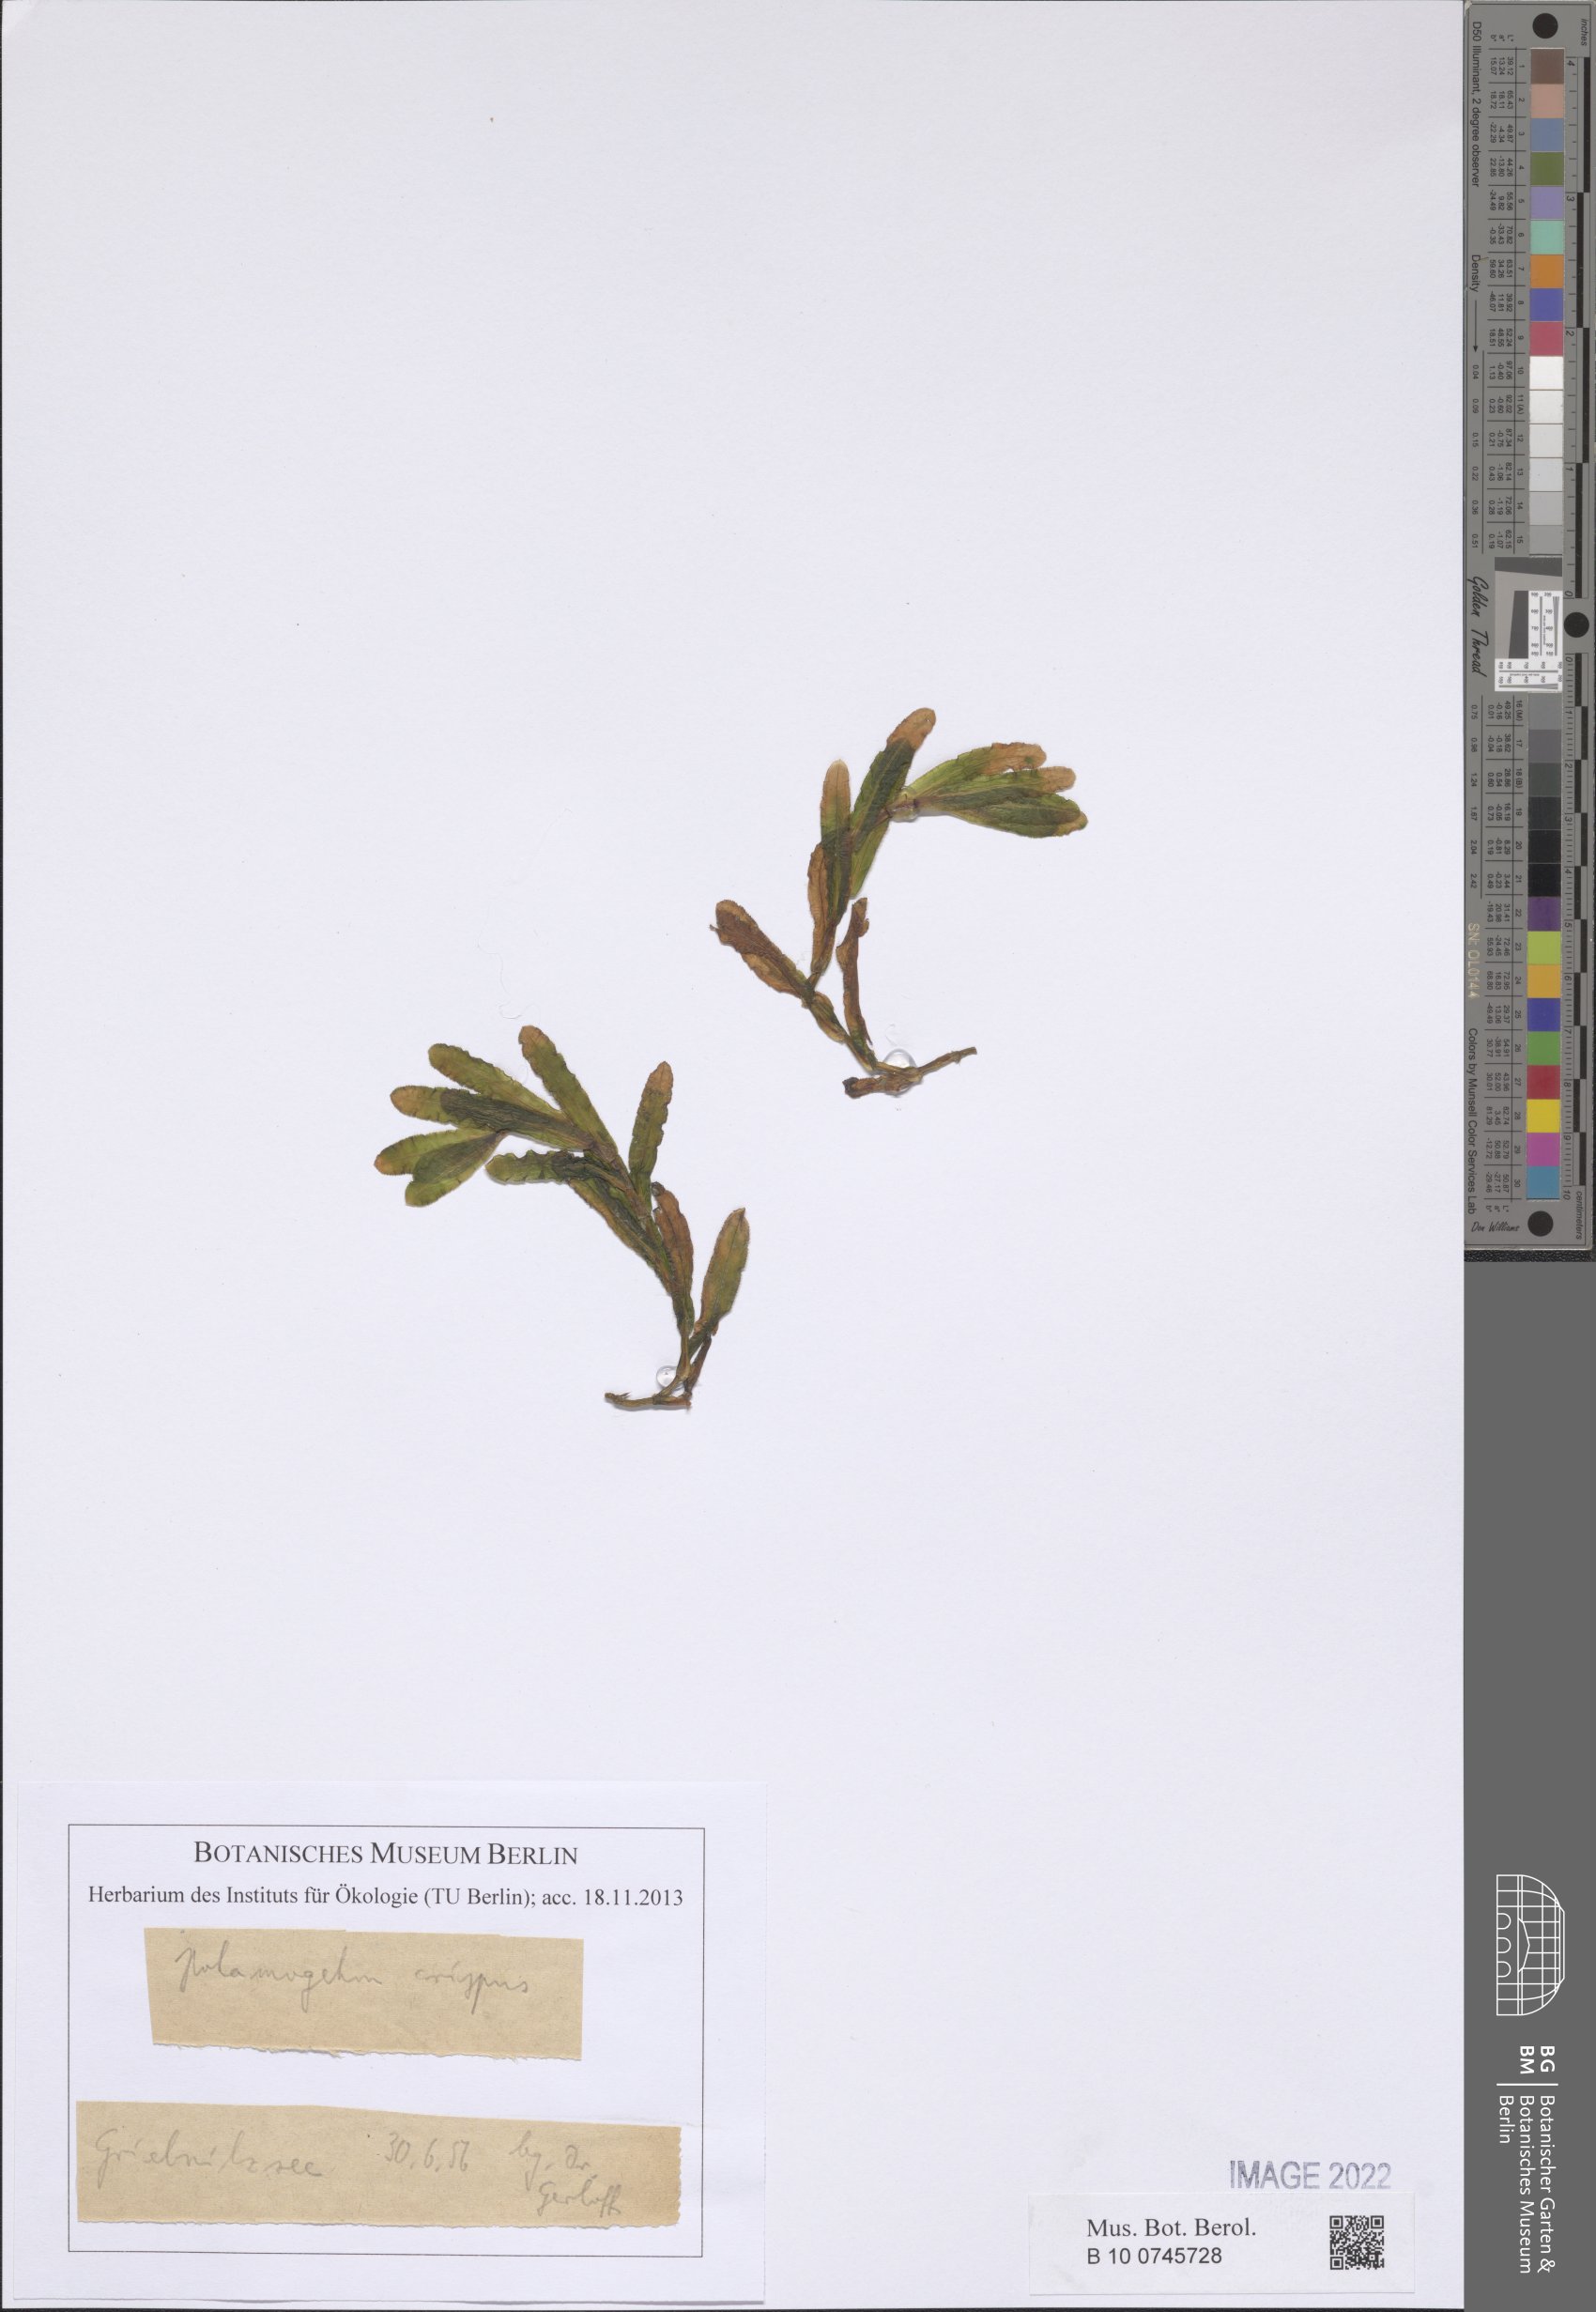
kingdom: Plantae
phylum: Tracheophyta
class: Liliopsida
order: Alismatales
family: Potamogetonaceae
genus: Potamogeton
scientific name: Potamogeton crispus
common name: Curled pondweed
